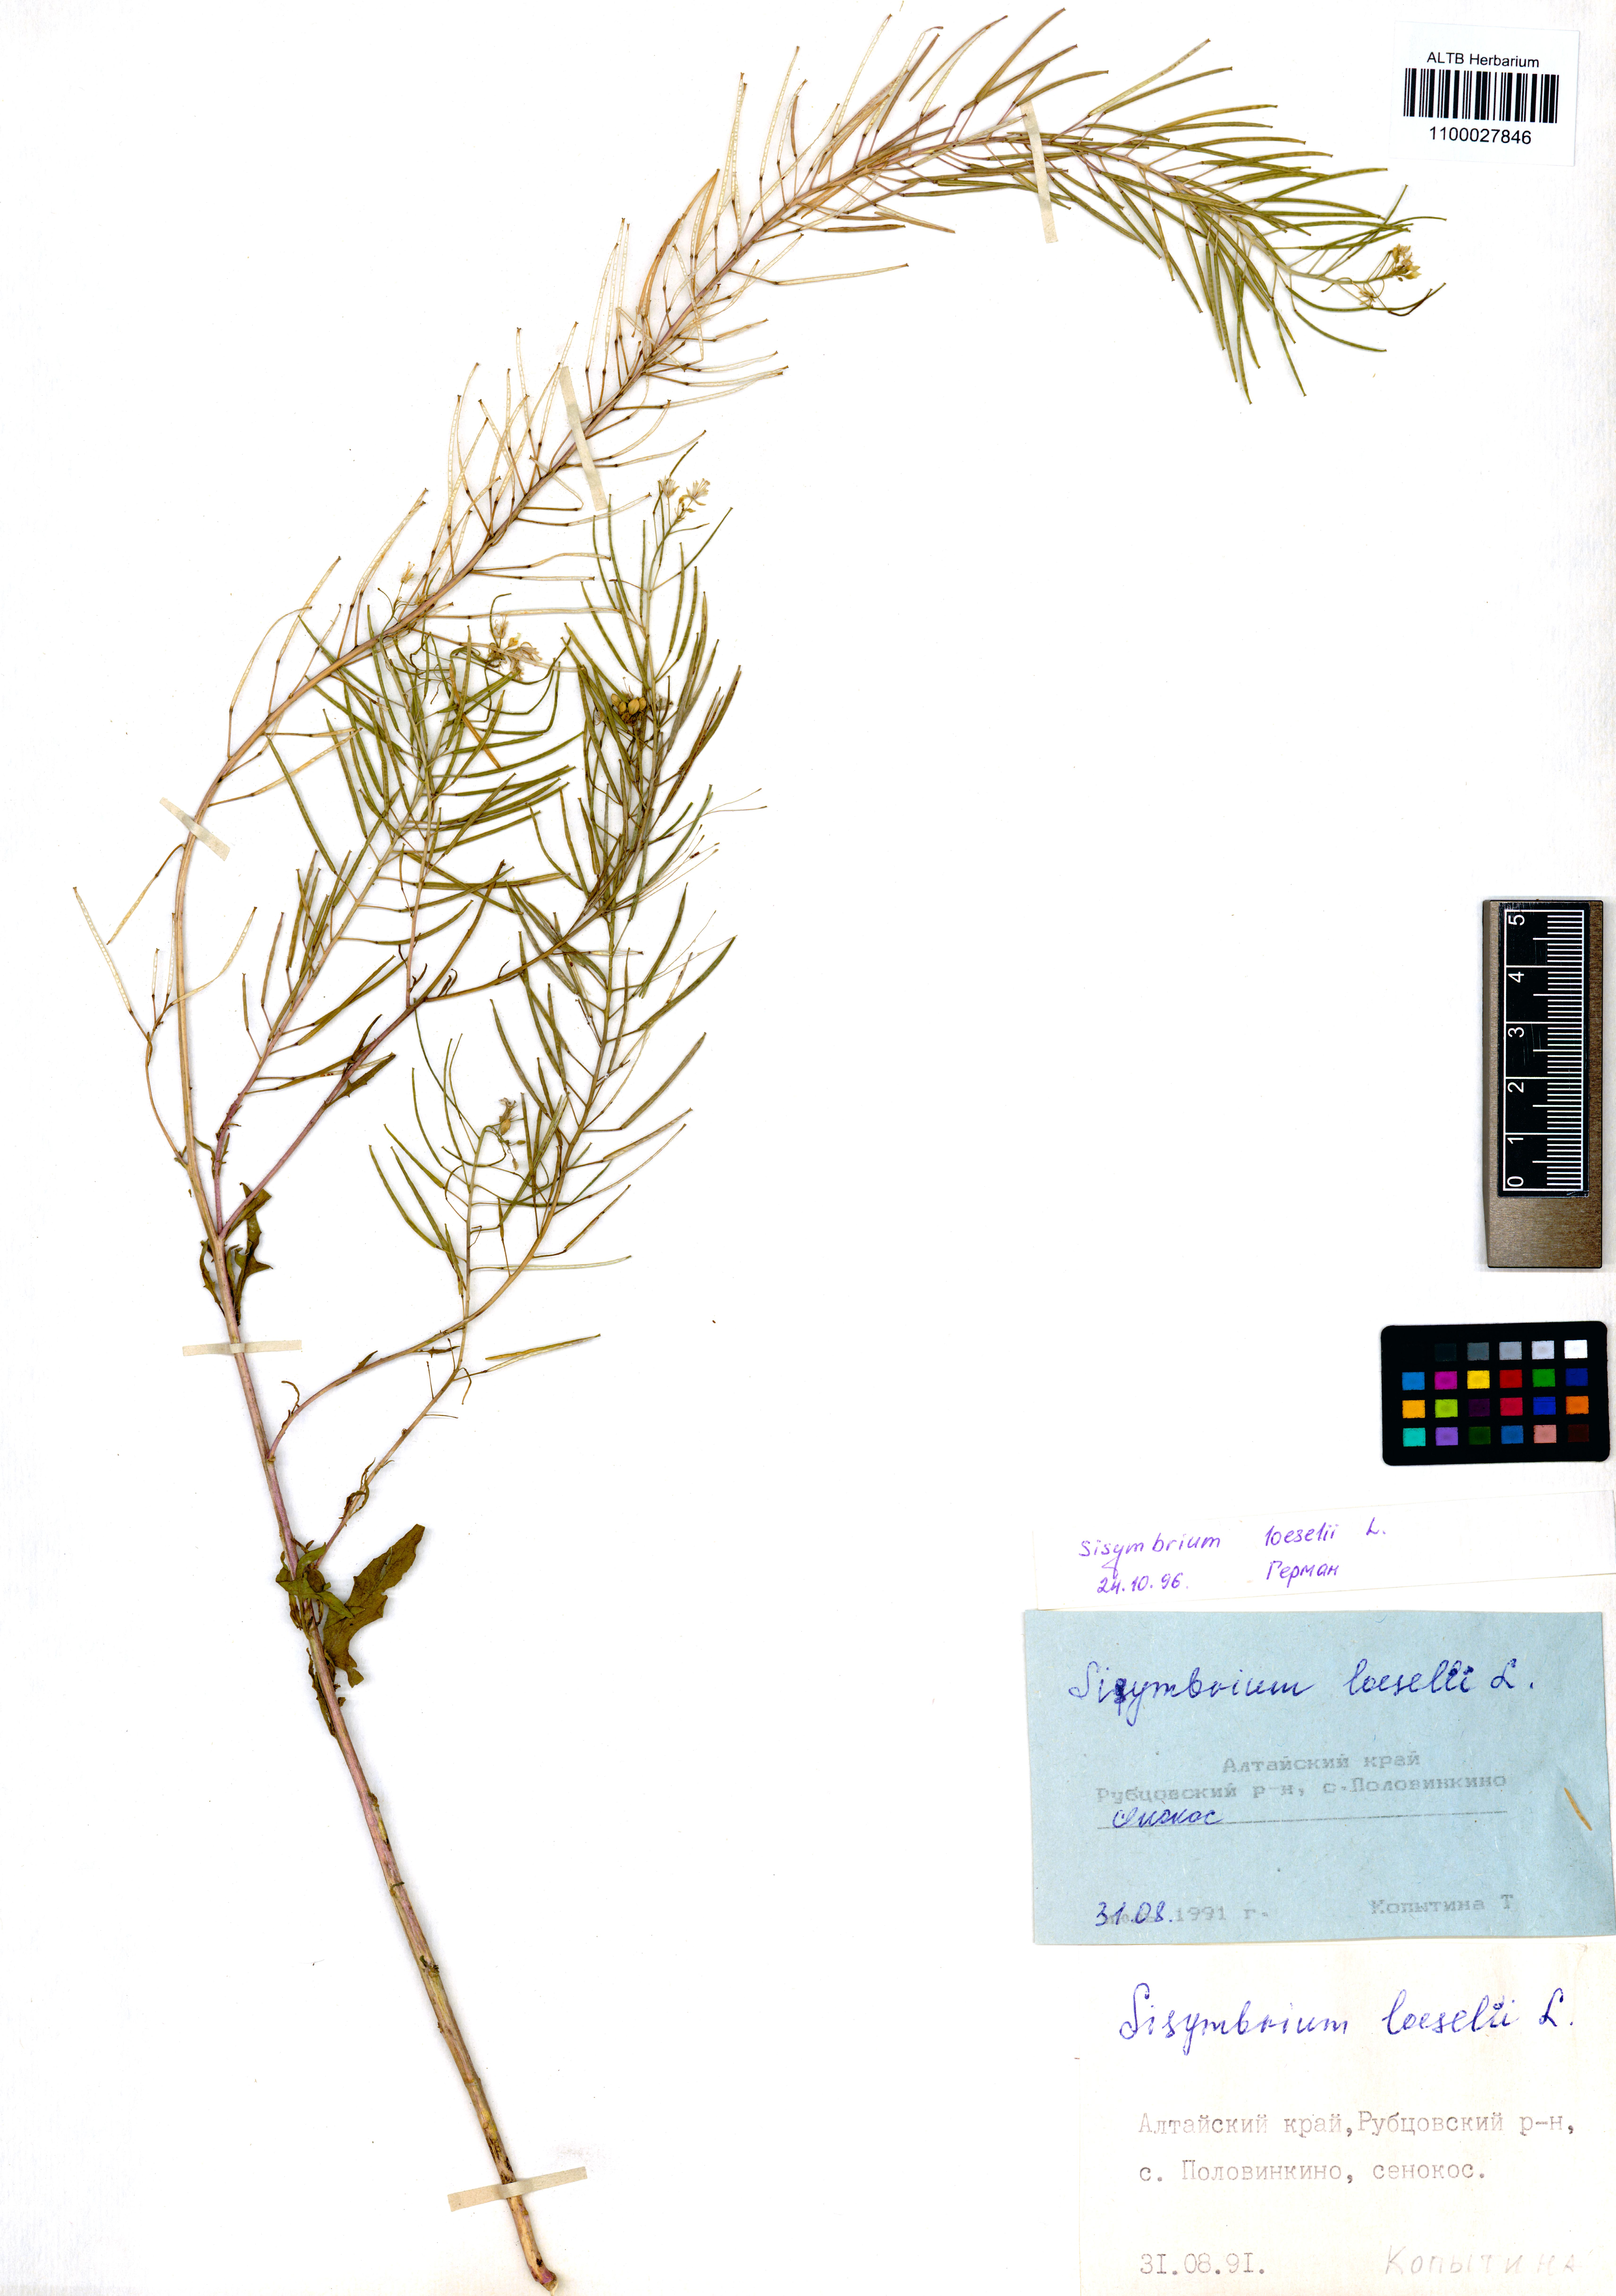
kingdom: Plantae
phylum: Tracheophyta
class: Magnoliopsida
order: Brassicales
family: Brassicaceae
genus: Sisymbrium
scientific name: Sisymbrium loeselii
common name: False london-rocket
